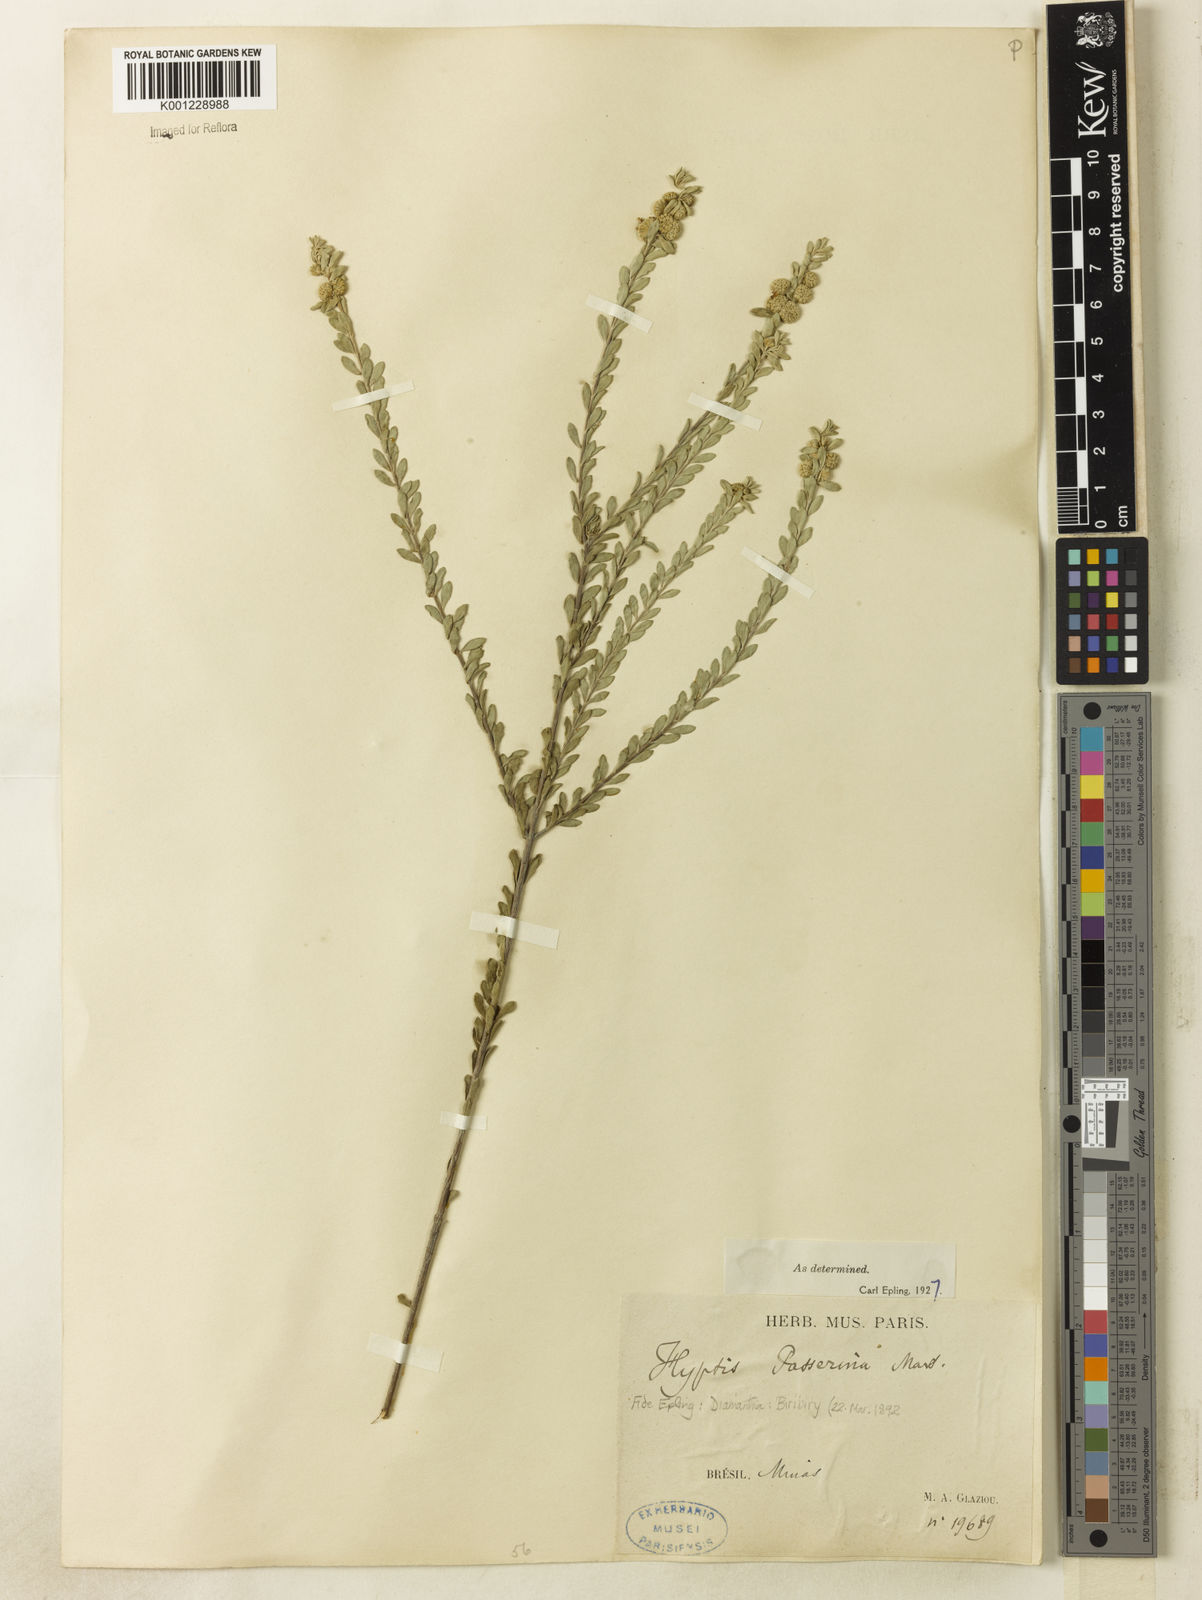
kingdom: Plantae
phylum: Tracheophyta
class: Magnoliopsida
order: Lamiales
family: Lamiaceae
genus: Hyptis
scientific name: Hyptis passerina
